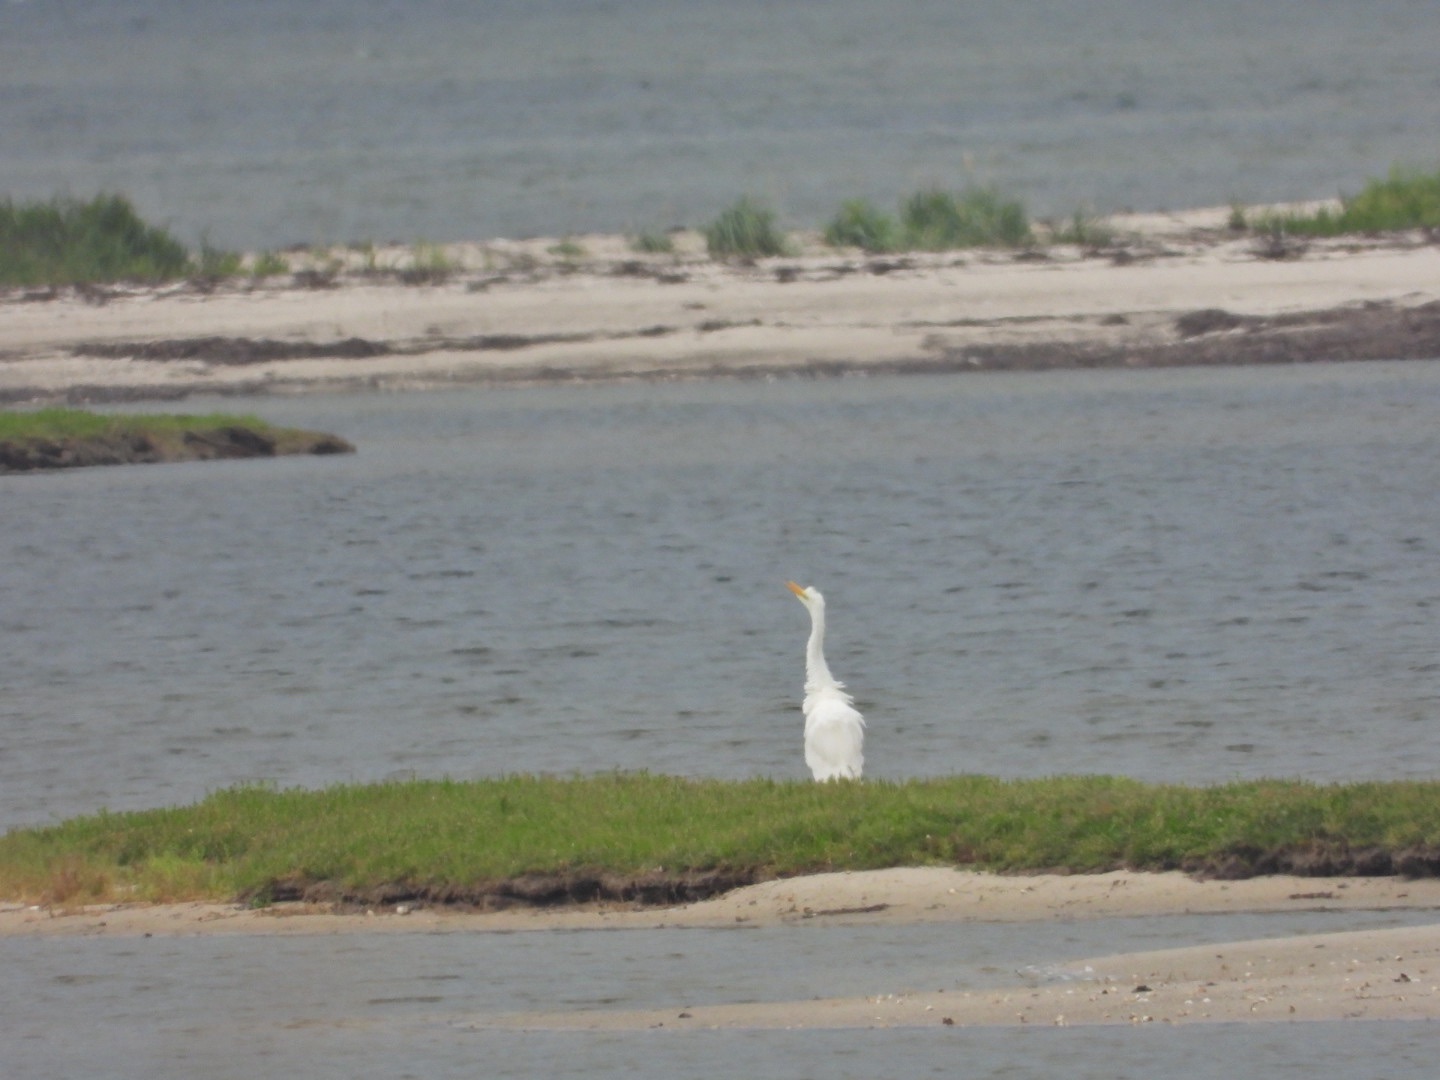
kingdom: Animalia
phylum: Chordata
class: Aves
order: Pelecaniformes
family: Ardeidae
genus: Ardea
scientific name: Ardea alba
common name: Sølvhejre
